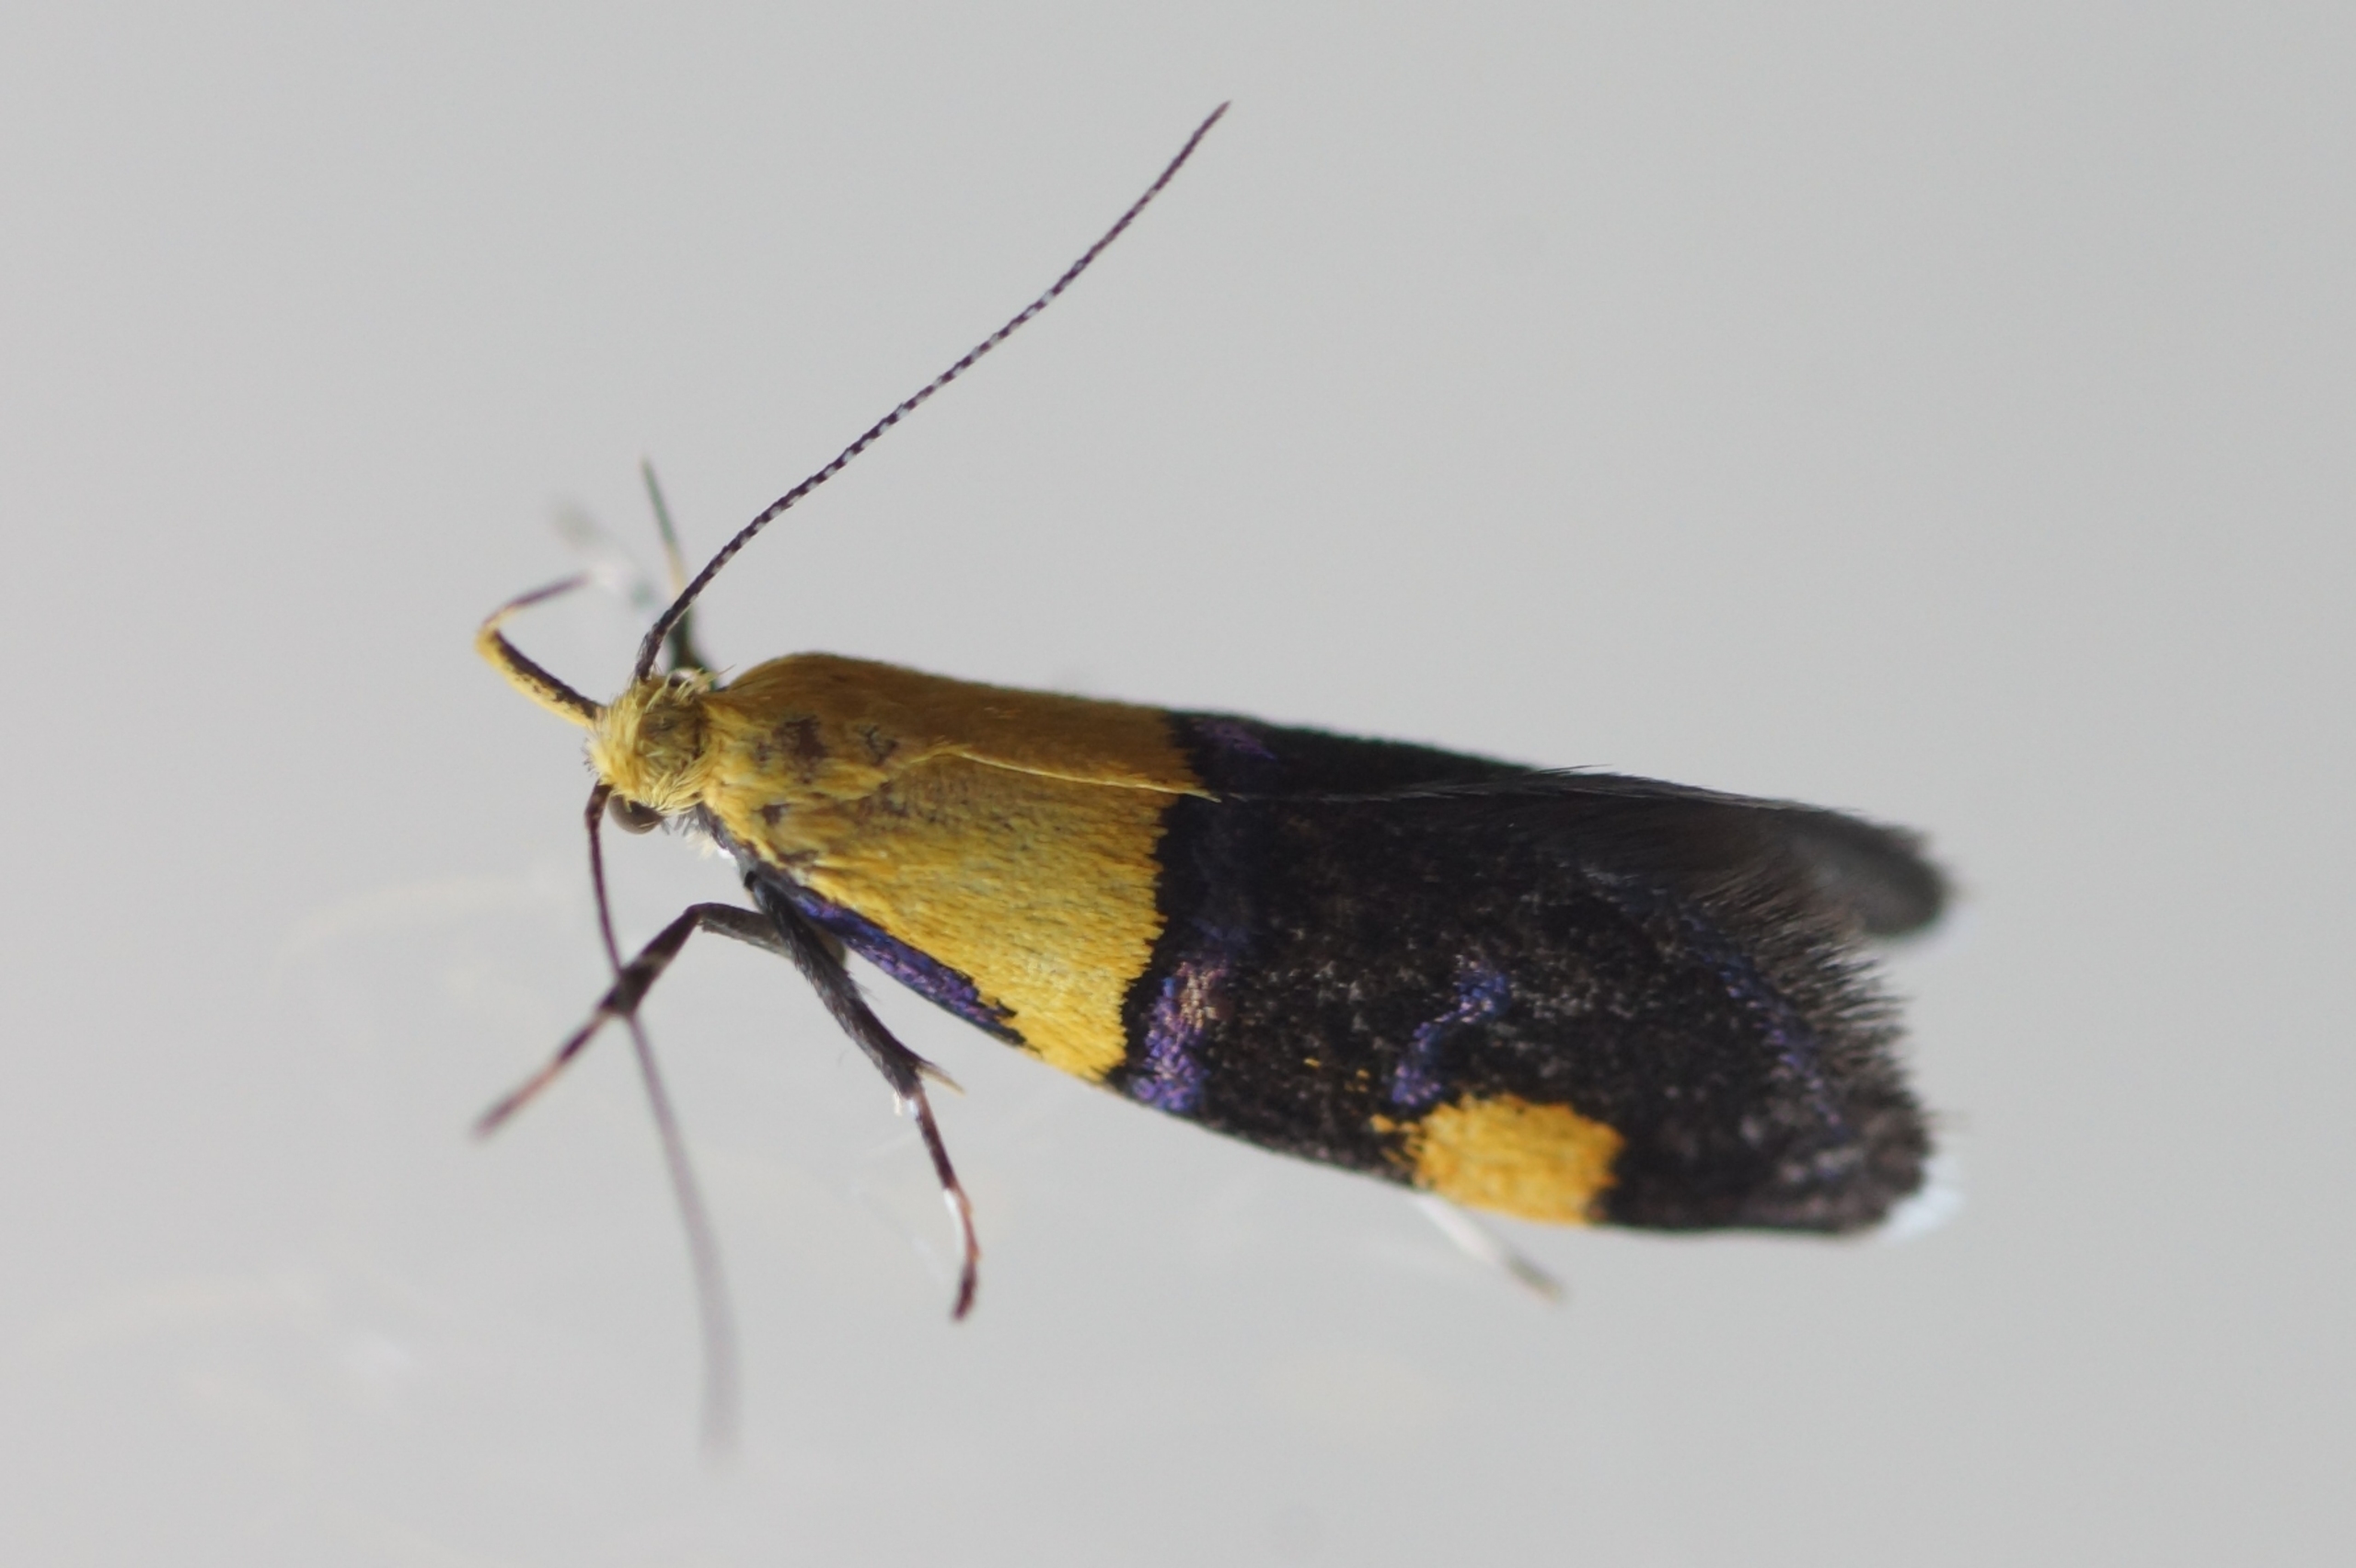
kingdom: Animalia
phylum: Arthropoda
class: Insecta
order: Lepidoptera
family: Oecophoridae
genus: Oecophora
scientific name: Oecophora bractella
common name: Tofarvet prydvinge
